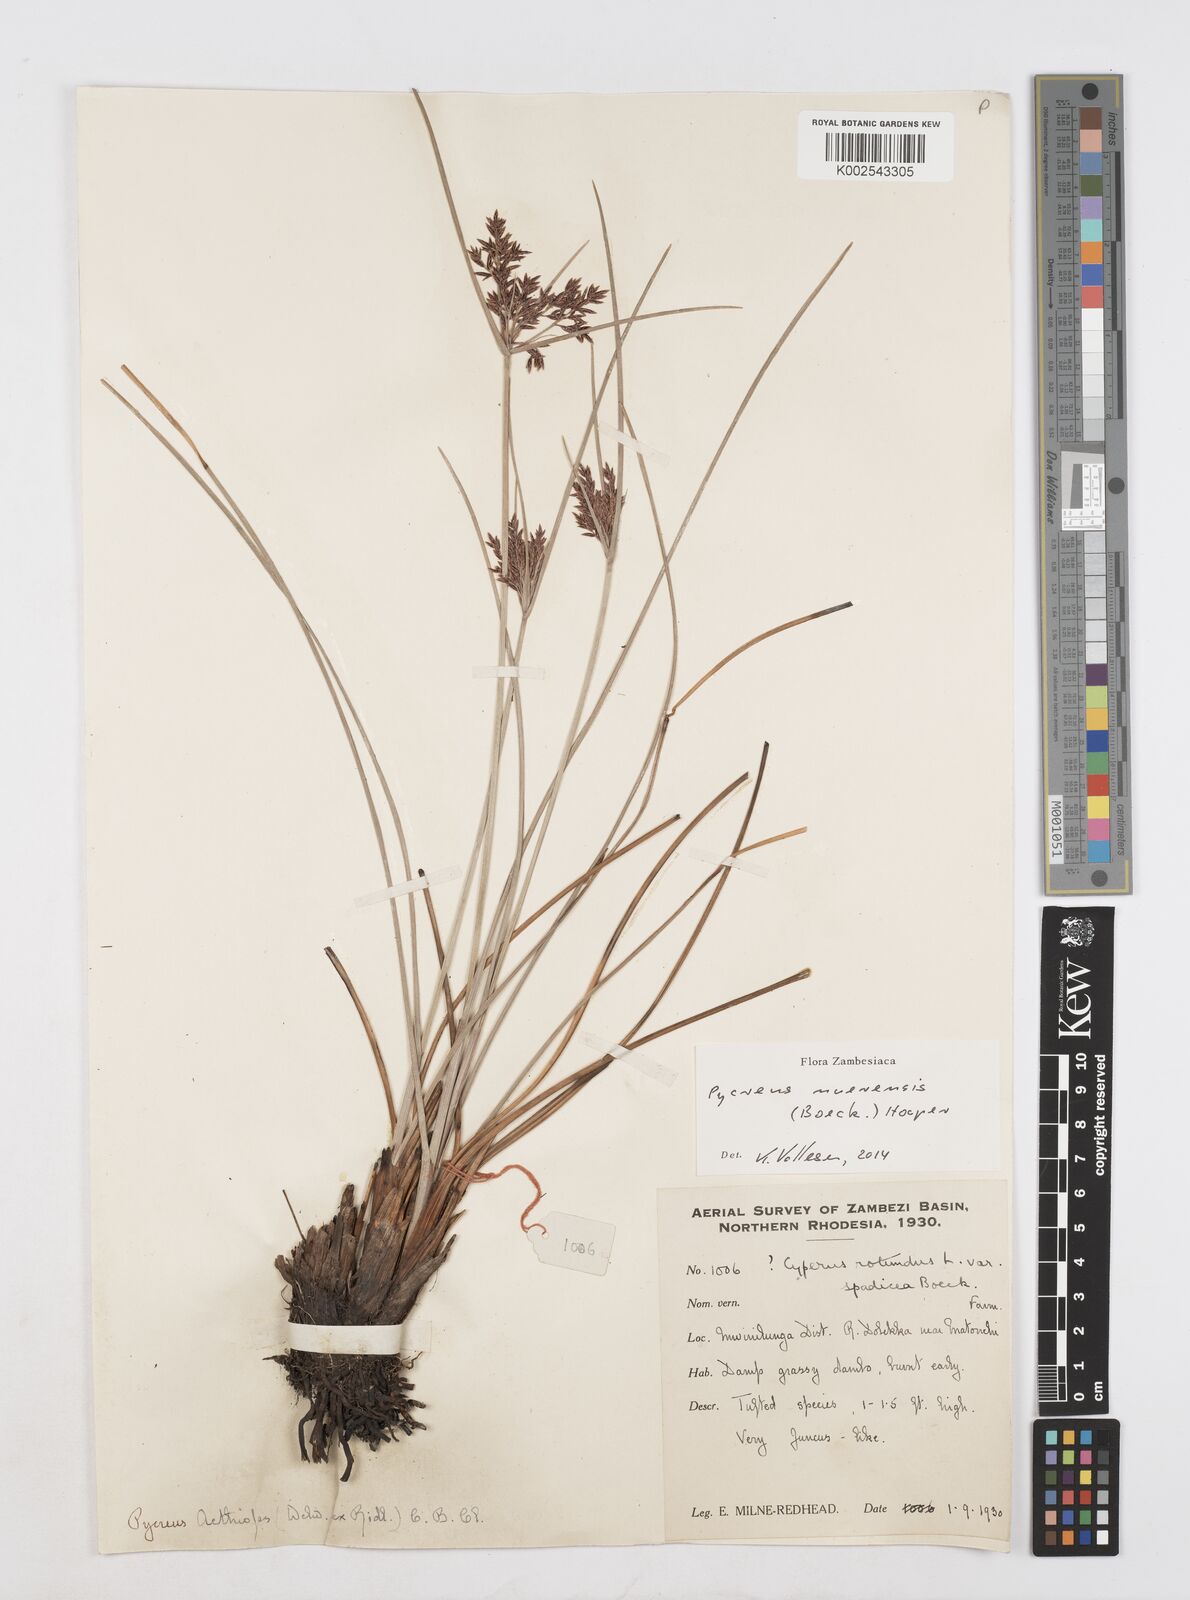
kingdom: Plantae
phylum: Tracheophyta
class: Liliopsida
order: Poales
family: Cyperaceae
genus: Cyperus
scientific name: Cyperus nuerensis
